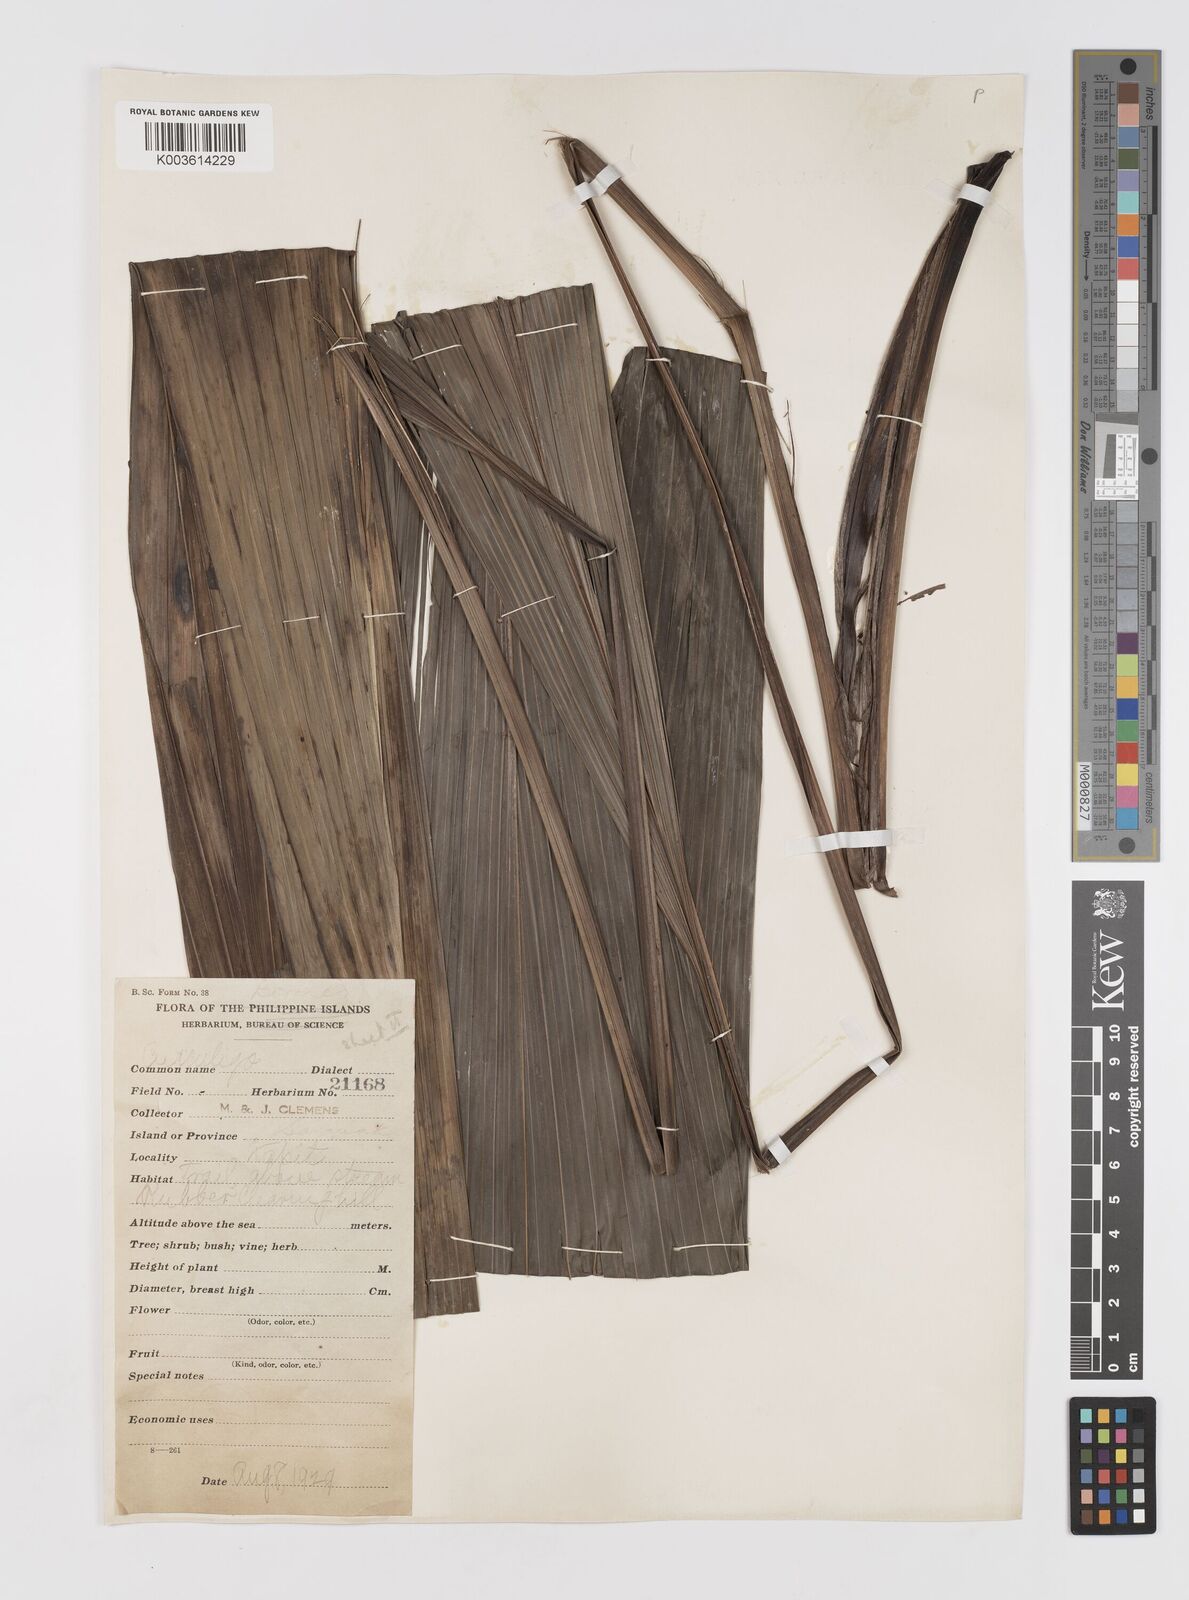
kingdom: Plantae
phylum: Tracheophyta
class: Liliopsida
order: Asparagales
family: Hypoxidaceae
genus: Curculigo
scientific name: Curculigo
